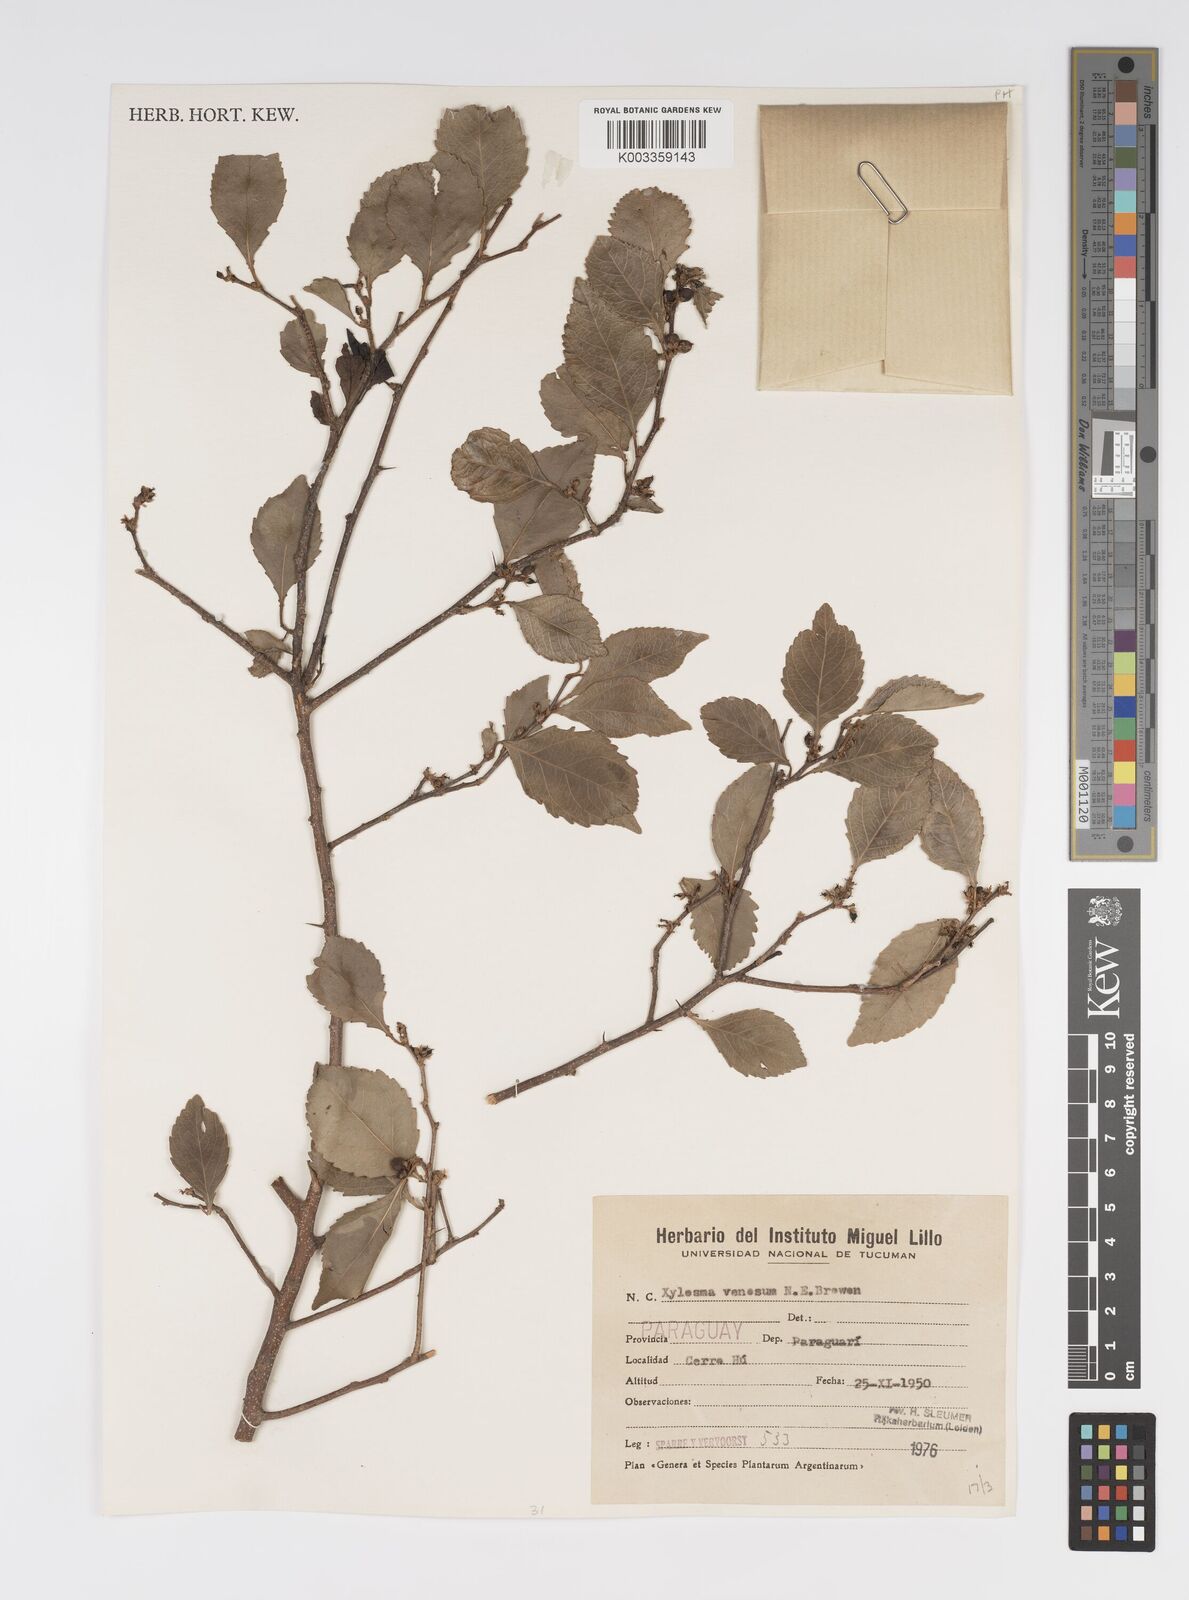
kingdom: Plantae
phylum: Tracheophyta
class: Magnoliopsida
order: Malpighiales
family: Salicaceae
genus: Xylosma
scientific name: Xylosma venosa
